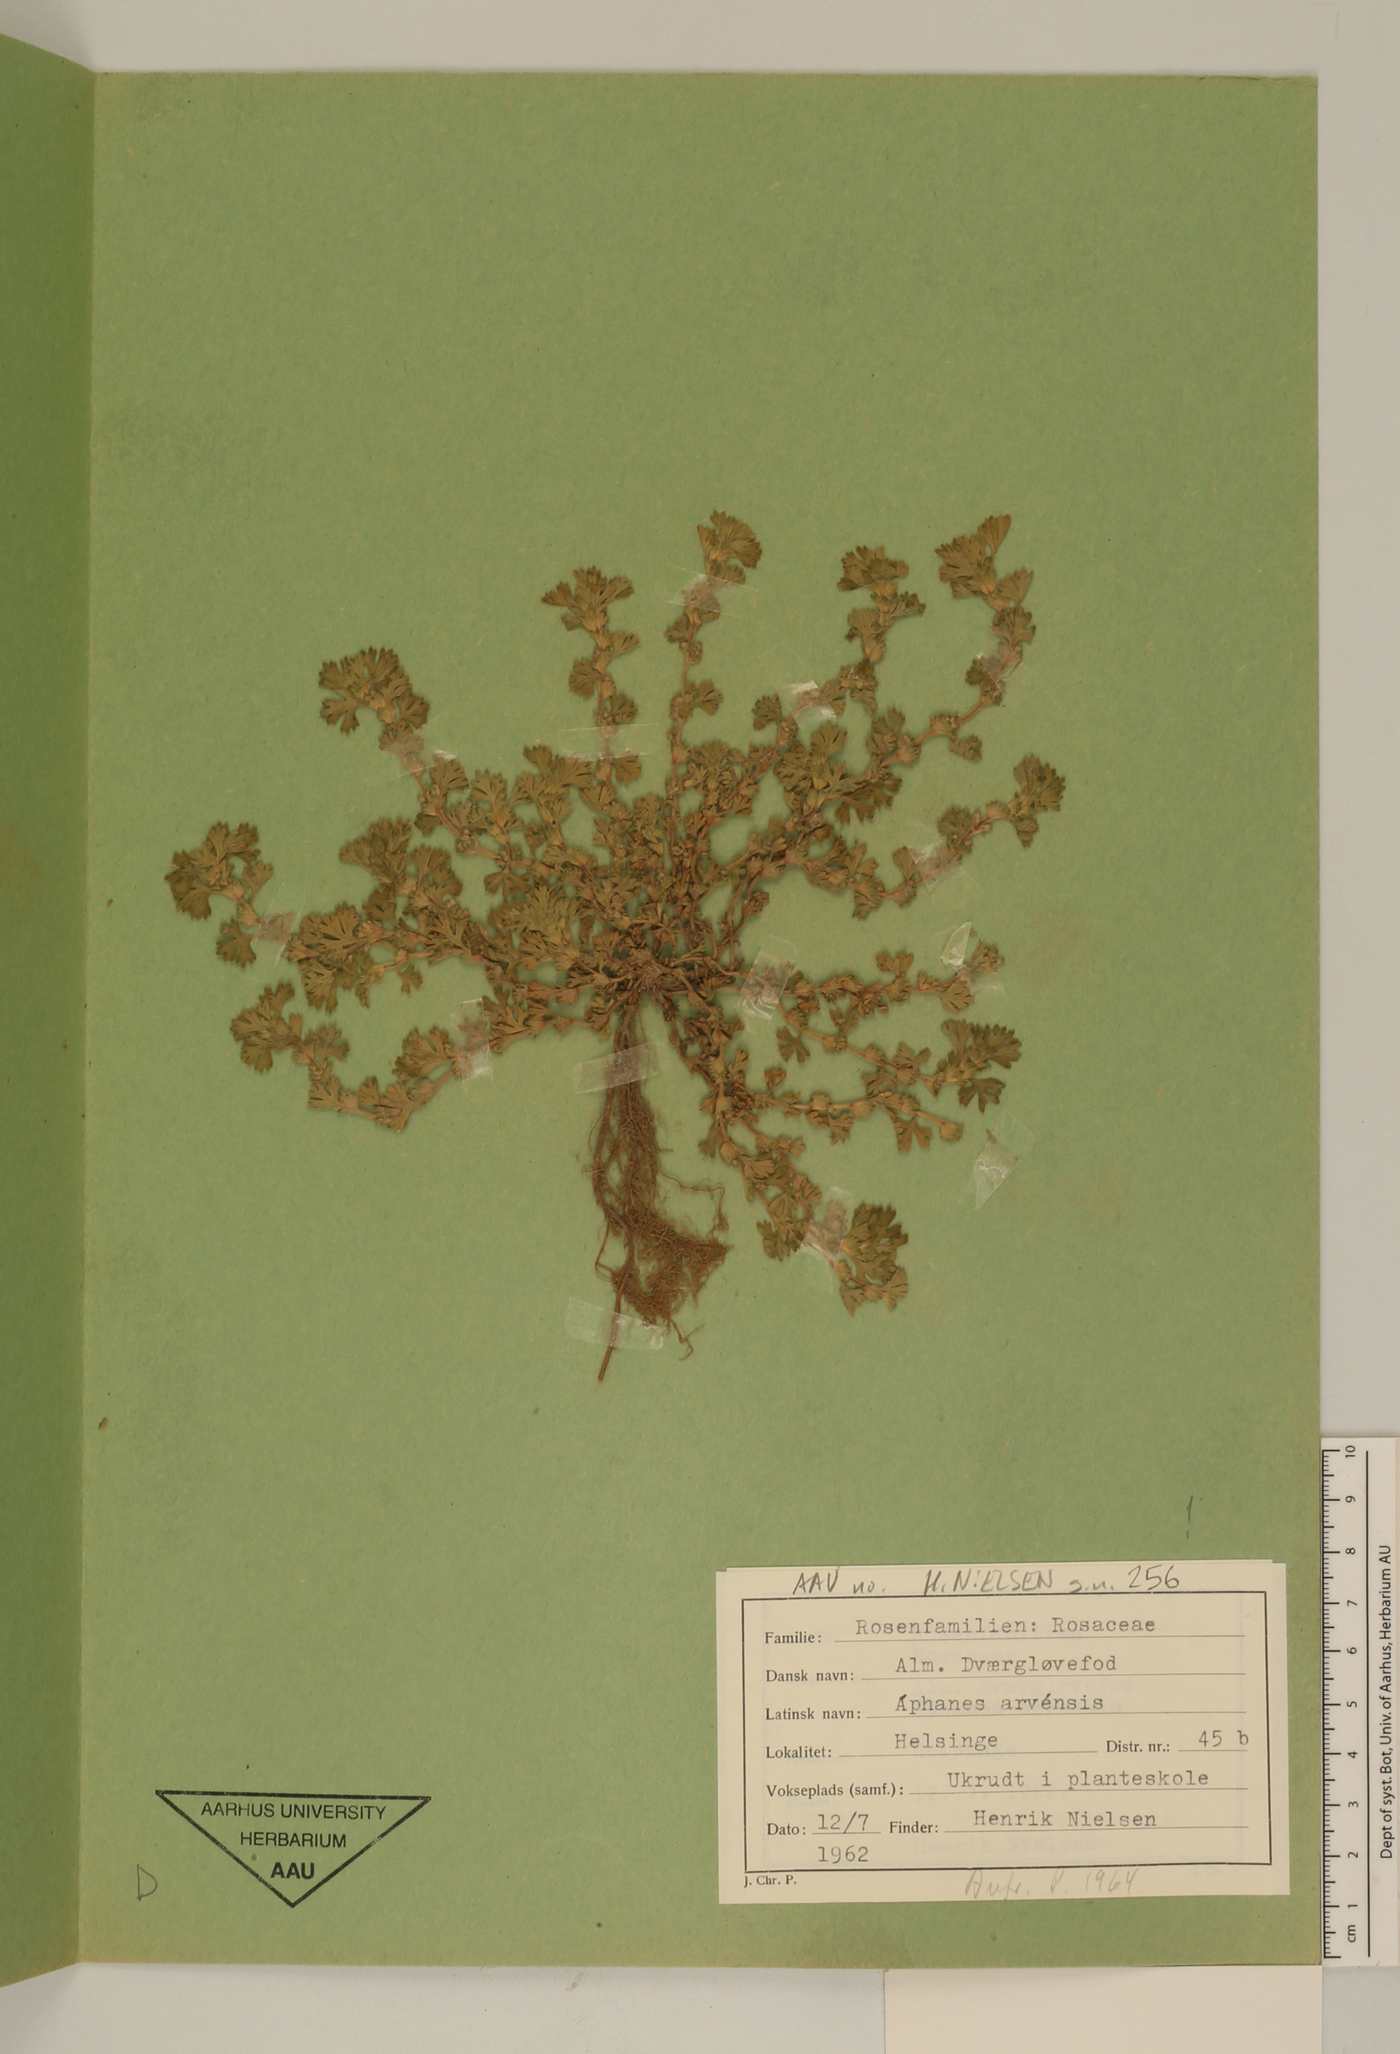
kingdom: Plantae
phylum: Tracheophyta
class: Magnoliopsida
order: Rosales
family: Rosaceae
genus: Aphanes
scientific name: Aphanes arvensis
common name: Parsley-piert
